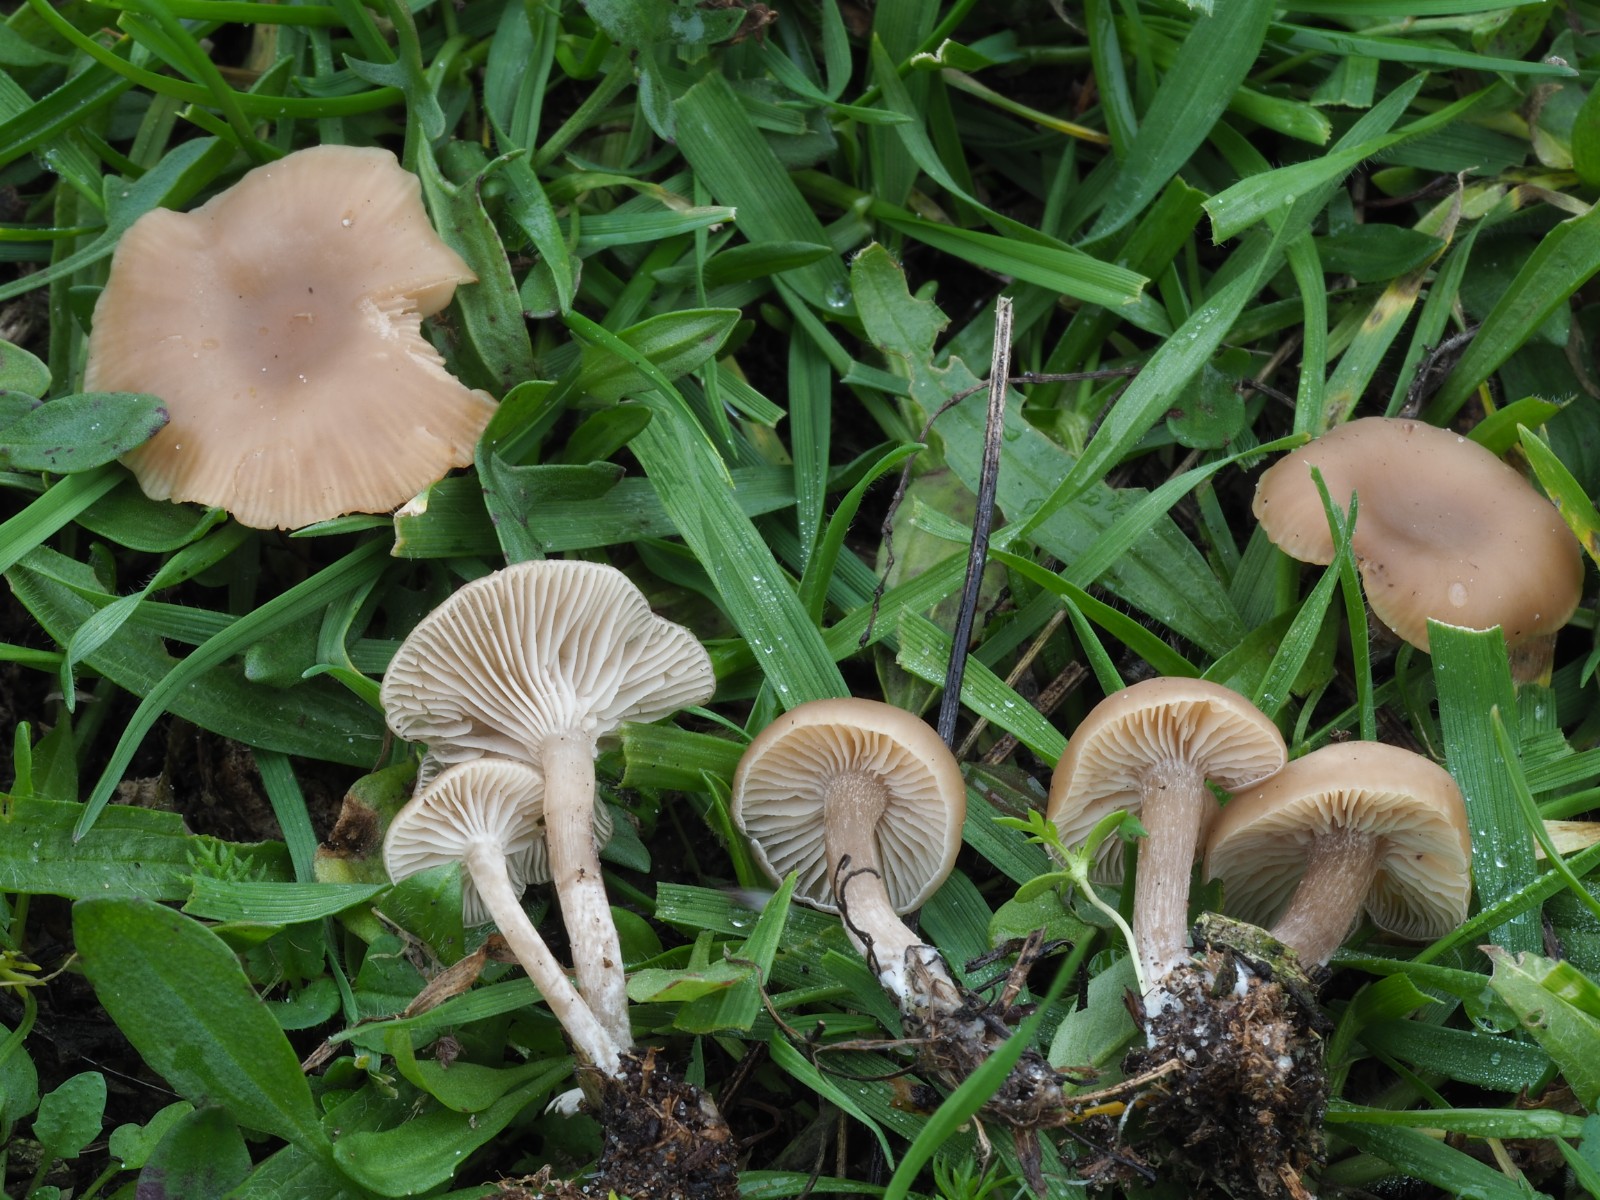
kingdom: Fungi
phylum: Basidiomycota
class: Agaricomycetes
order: Agaricales
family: Tricholomataceae
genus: Clitocybe
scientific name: Clitocybe
